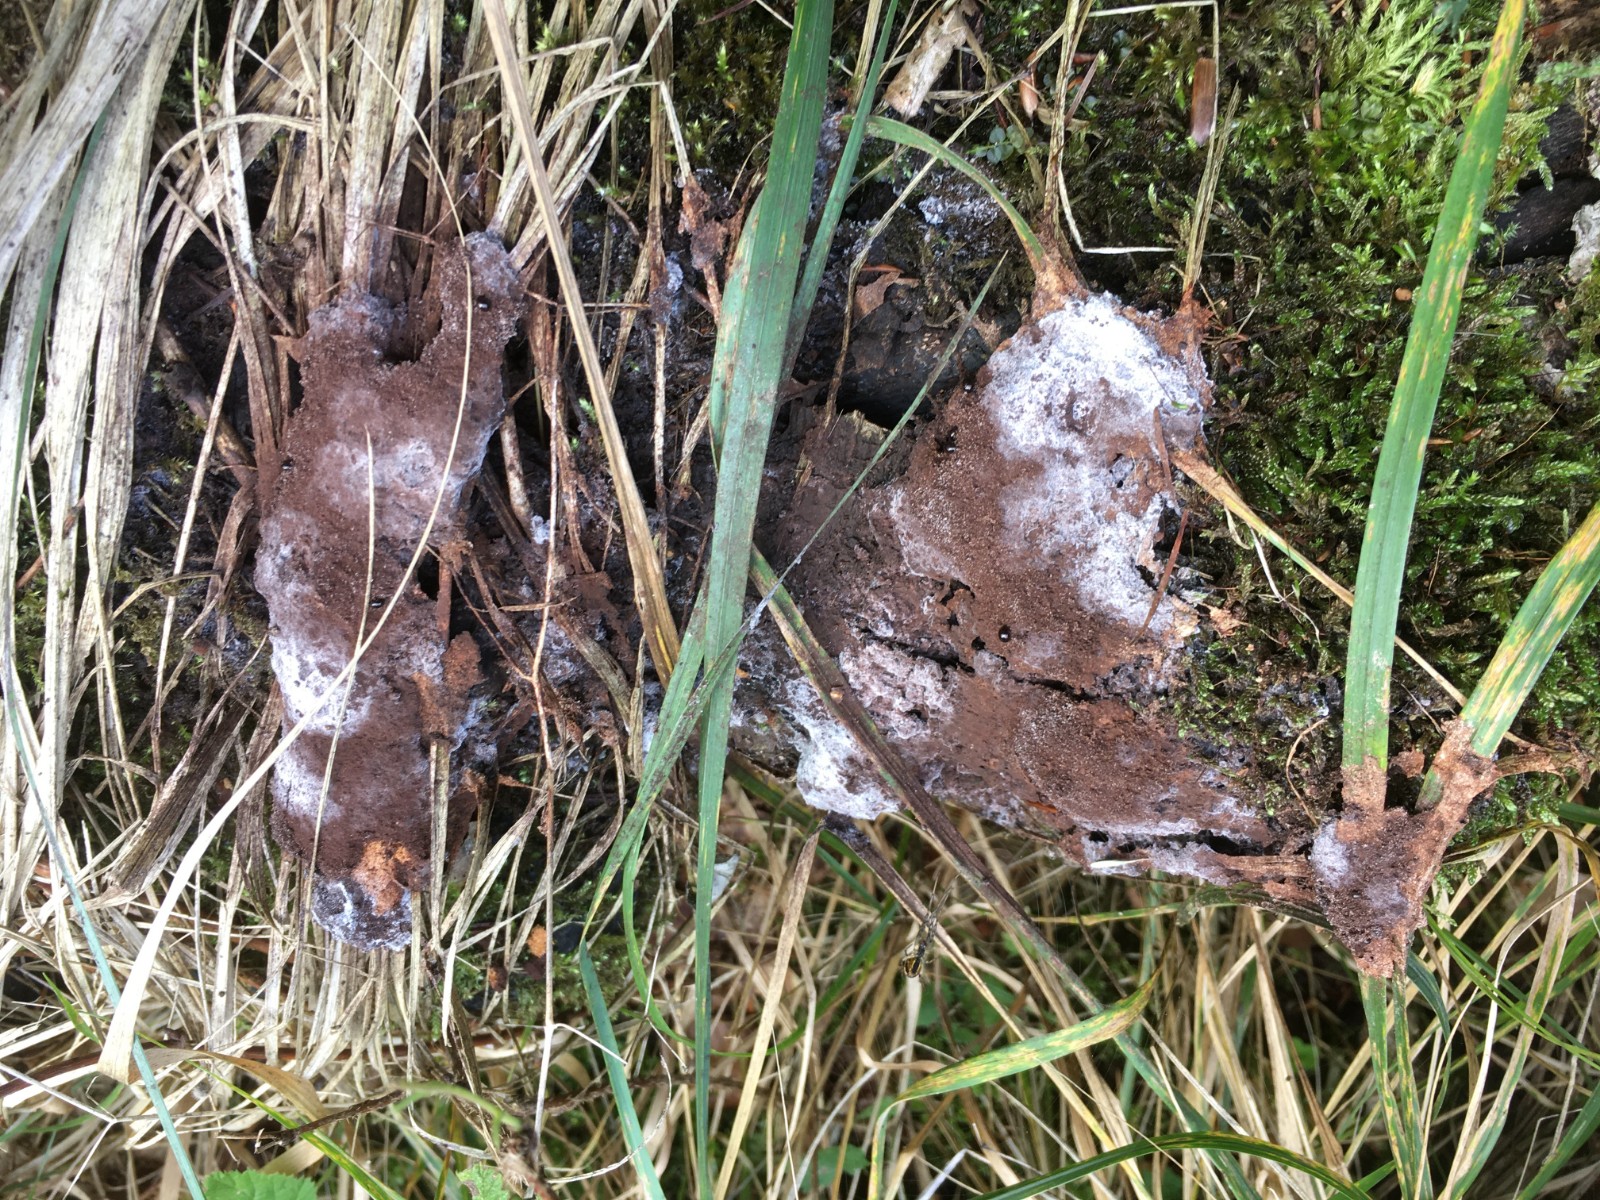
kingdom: Protozoa
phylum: Mycetozoa
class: Myxomycetes
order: Physarales
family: Physaraceae
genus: Fuligo
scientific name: Fuligo septica
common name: Dog vomit slime mold
